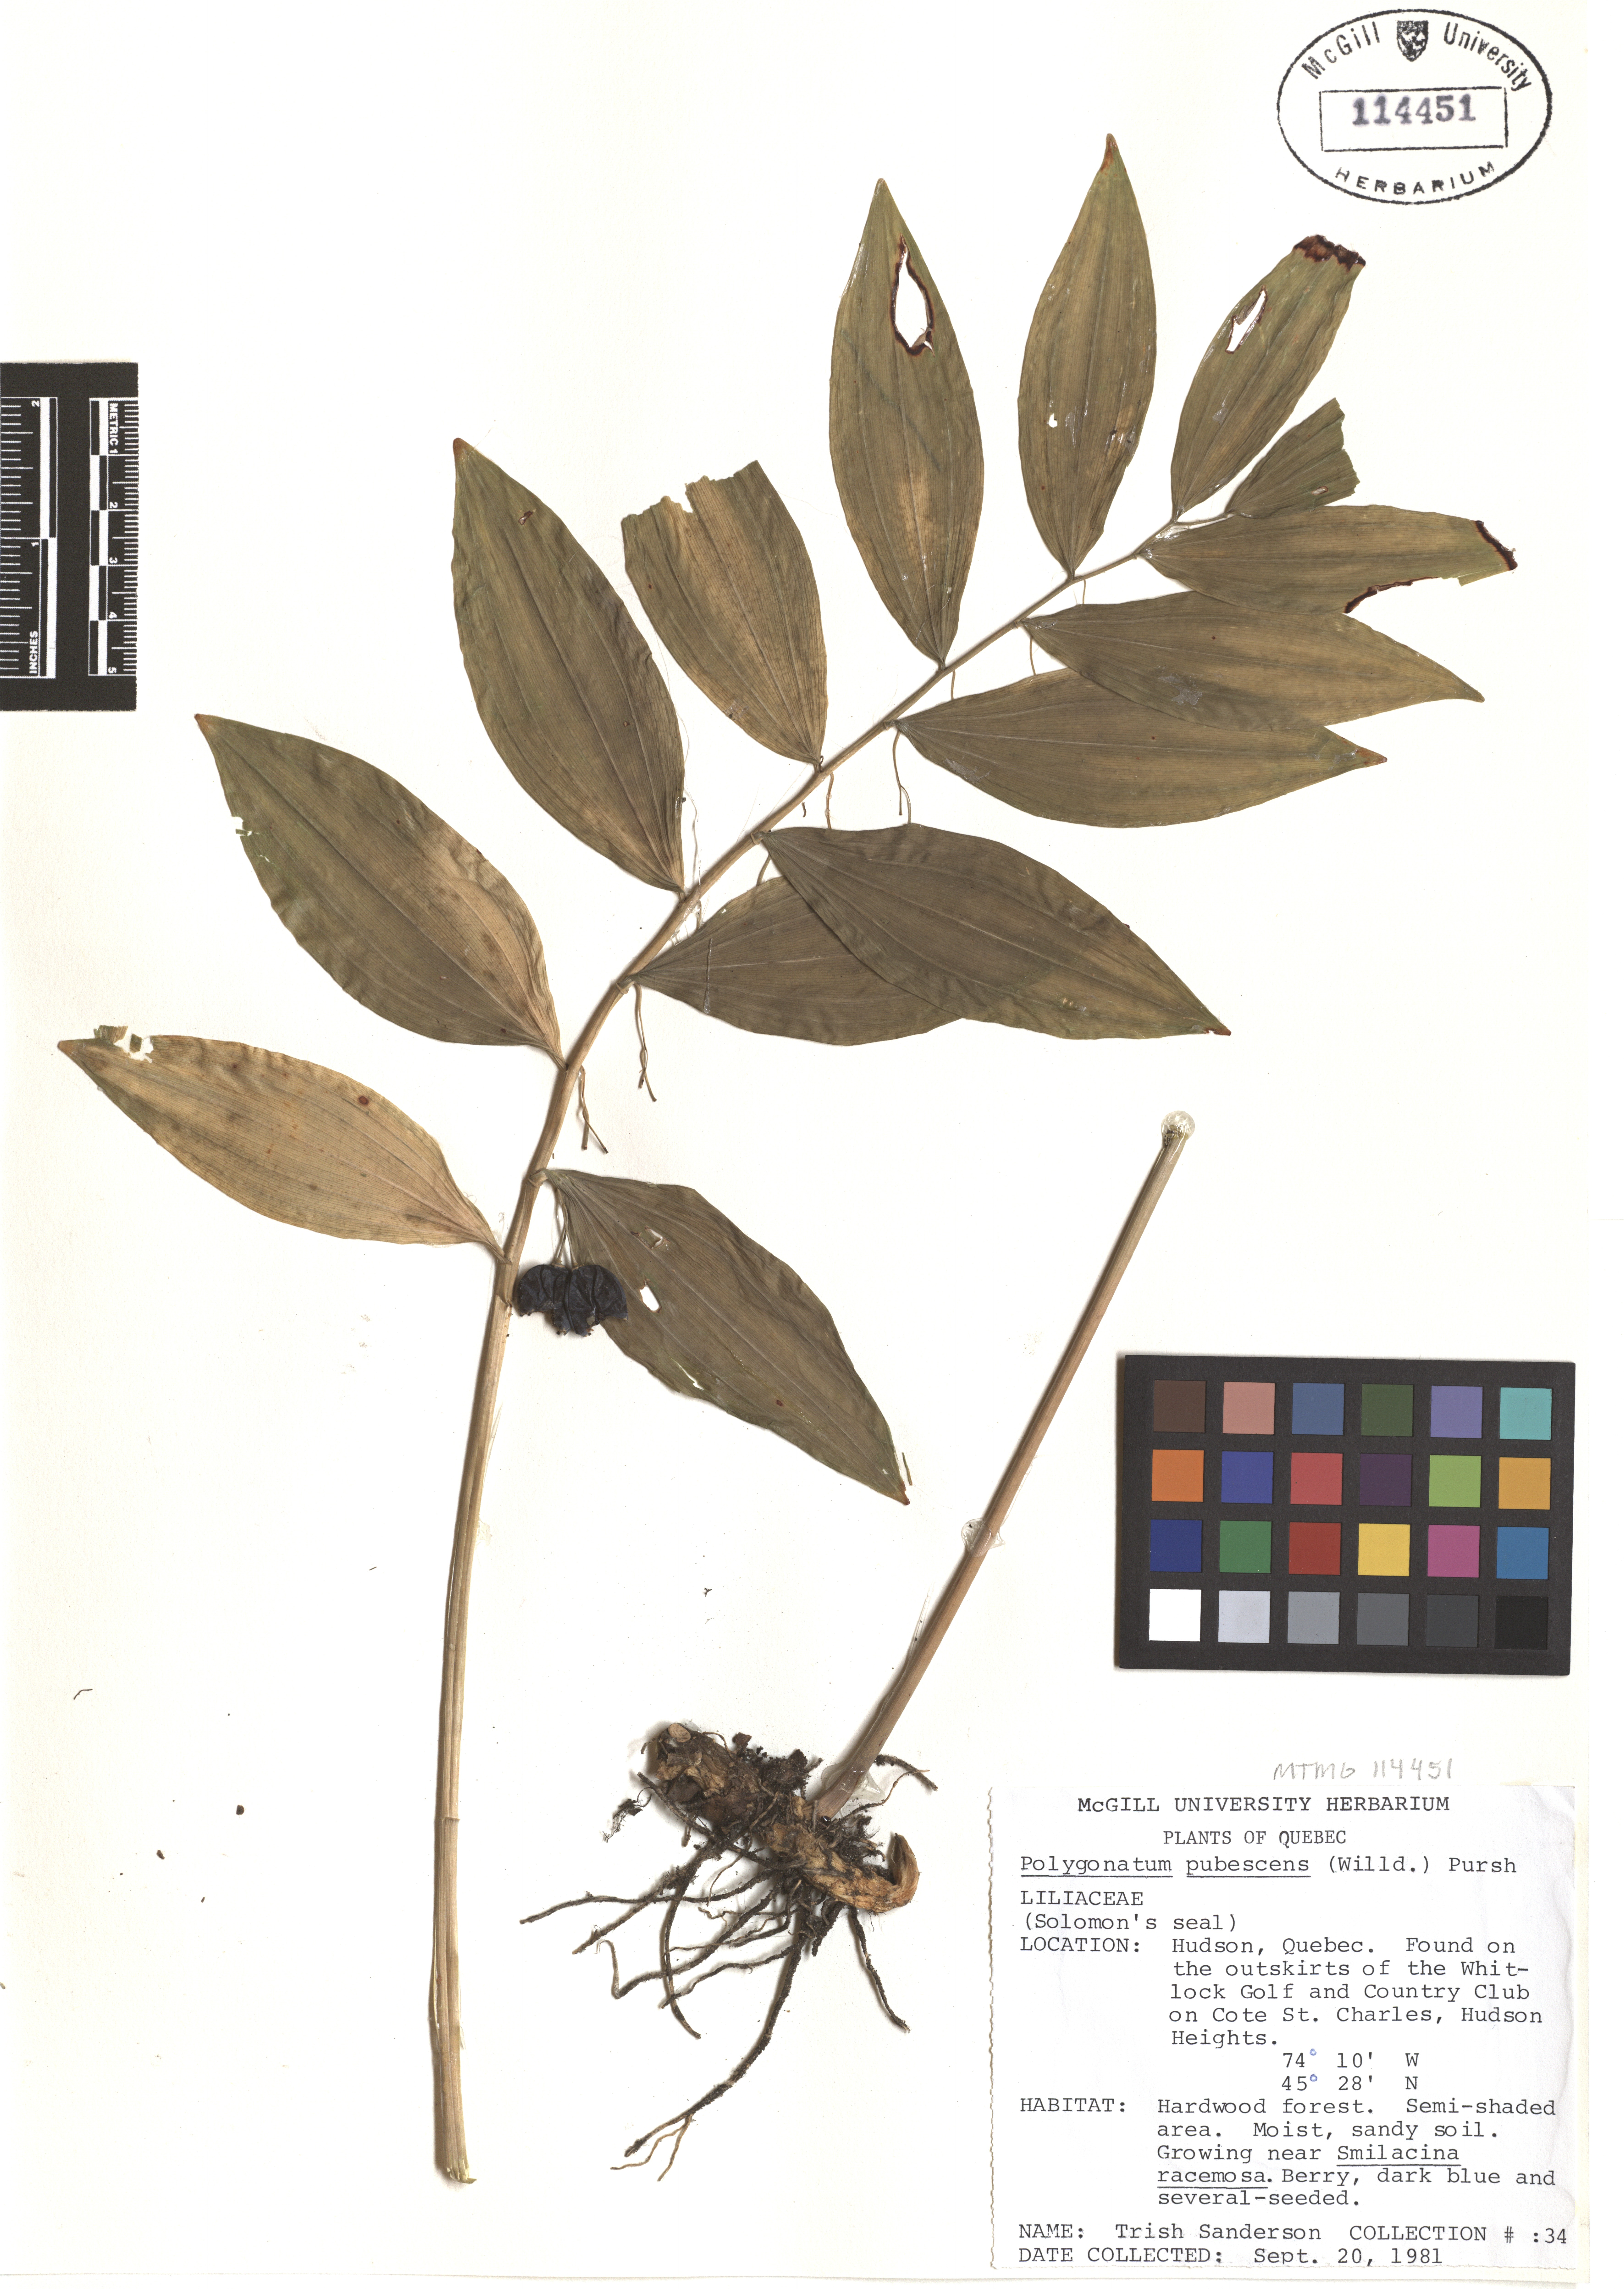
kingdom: Plantae
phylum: Tracheophyta
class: Liliopsida
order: Asparagales
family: Asparagaceae
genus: Polygonatum
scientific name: Polygonatum pubescens
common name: Downy solomon's seal
